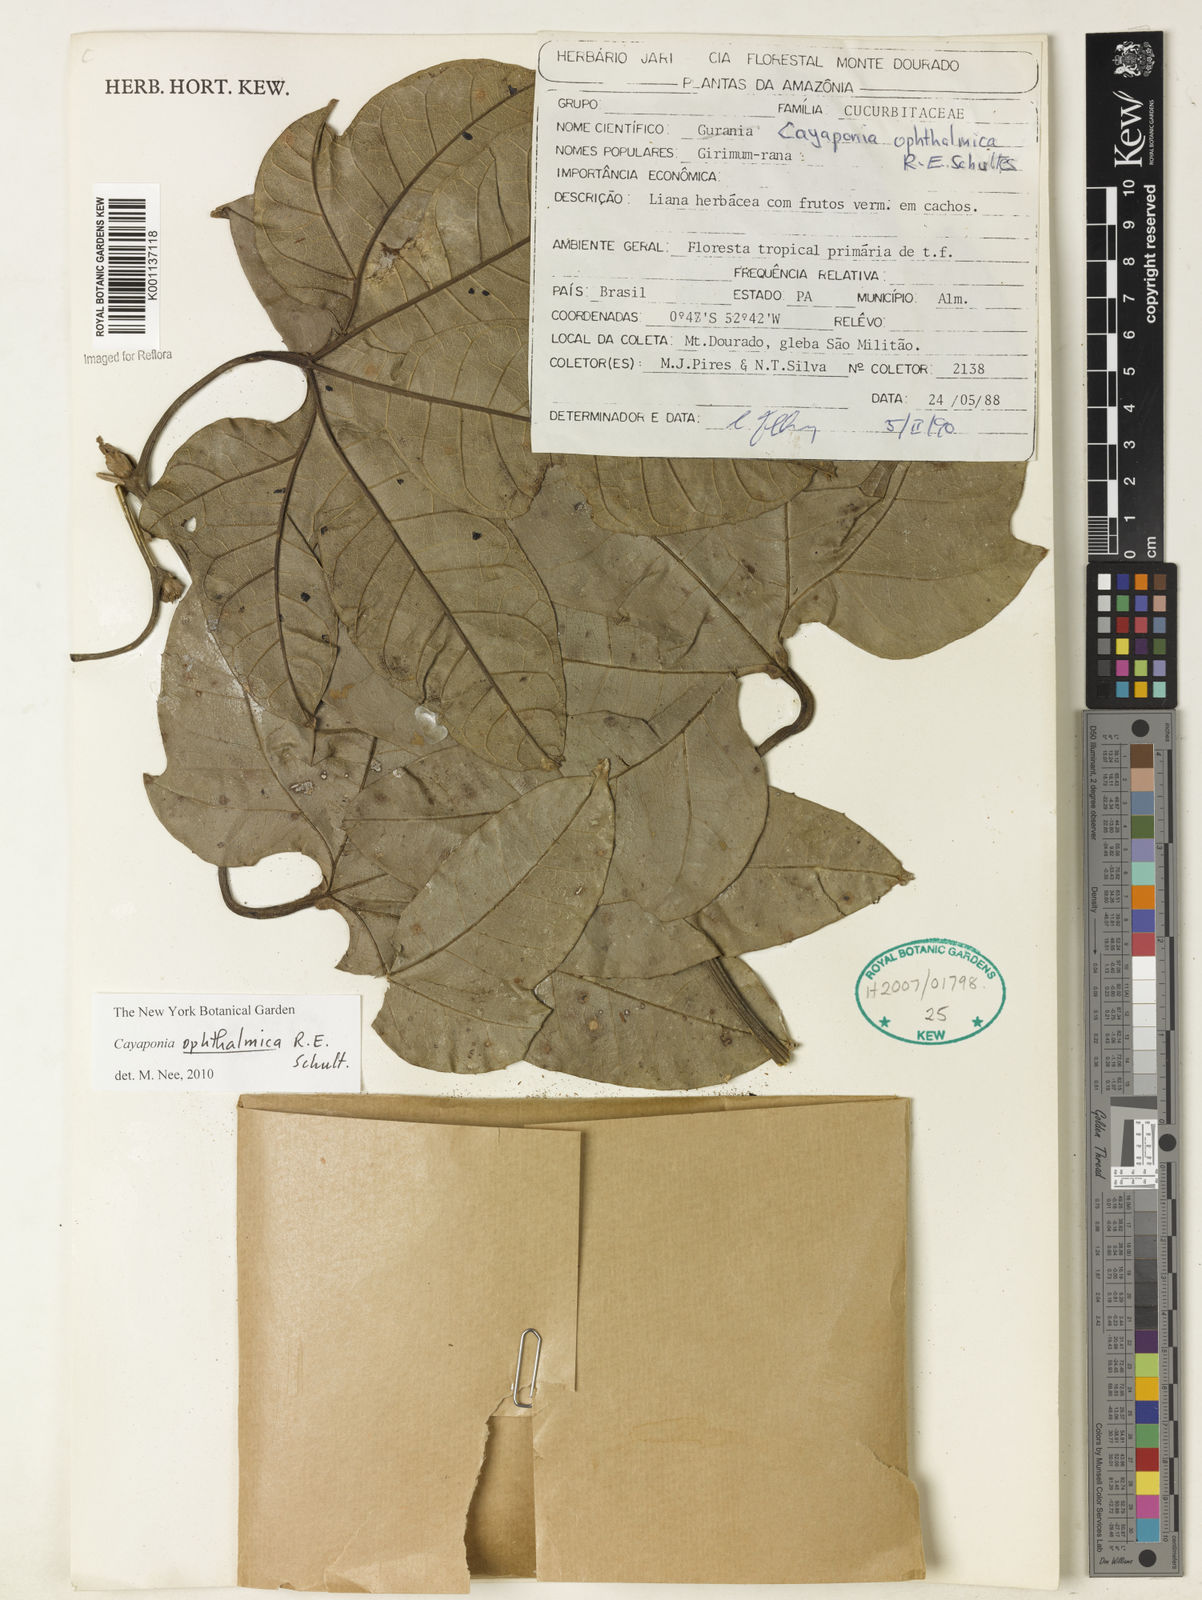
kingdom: Plantae
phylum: Tracheophyta
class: Magnoliopsida
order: Cucurbitales
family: Cucurbitaceae
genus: Cayaponia
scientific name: Cayaponia ophthalmica
